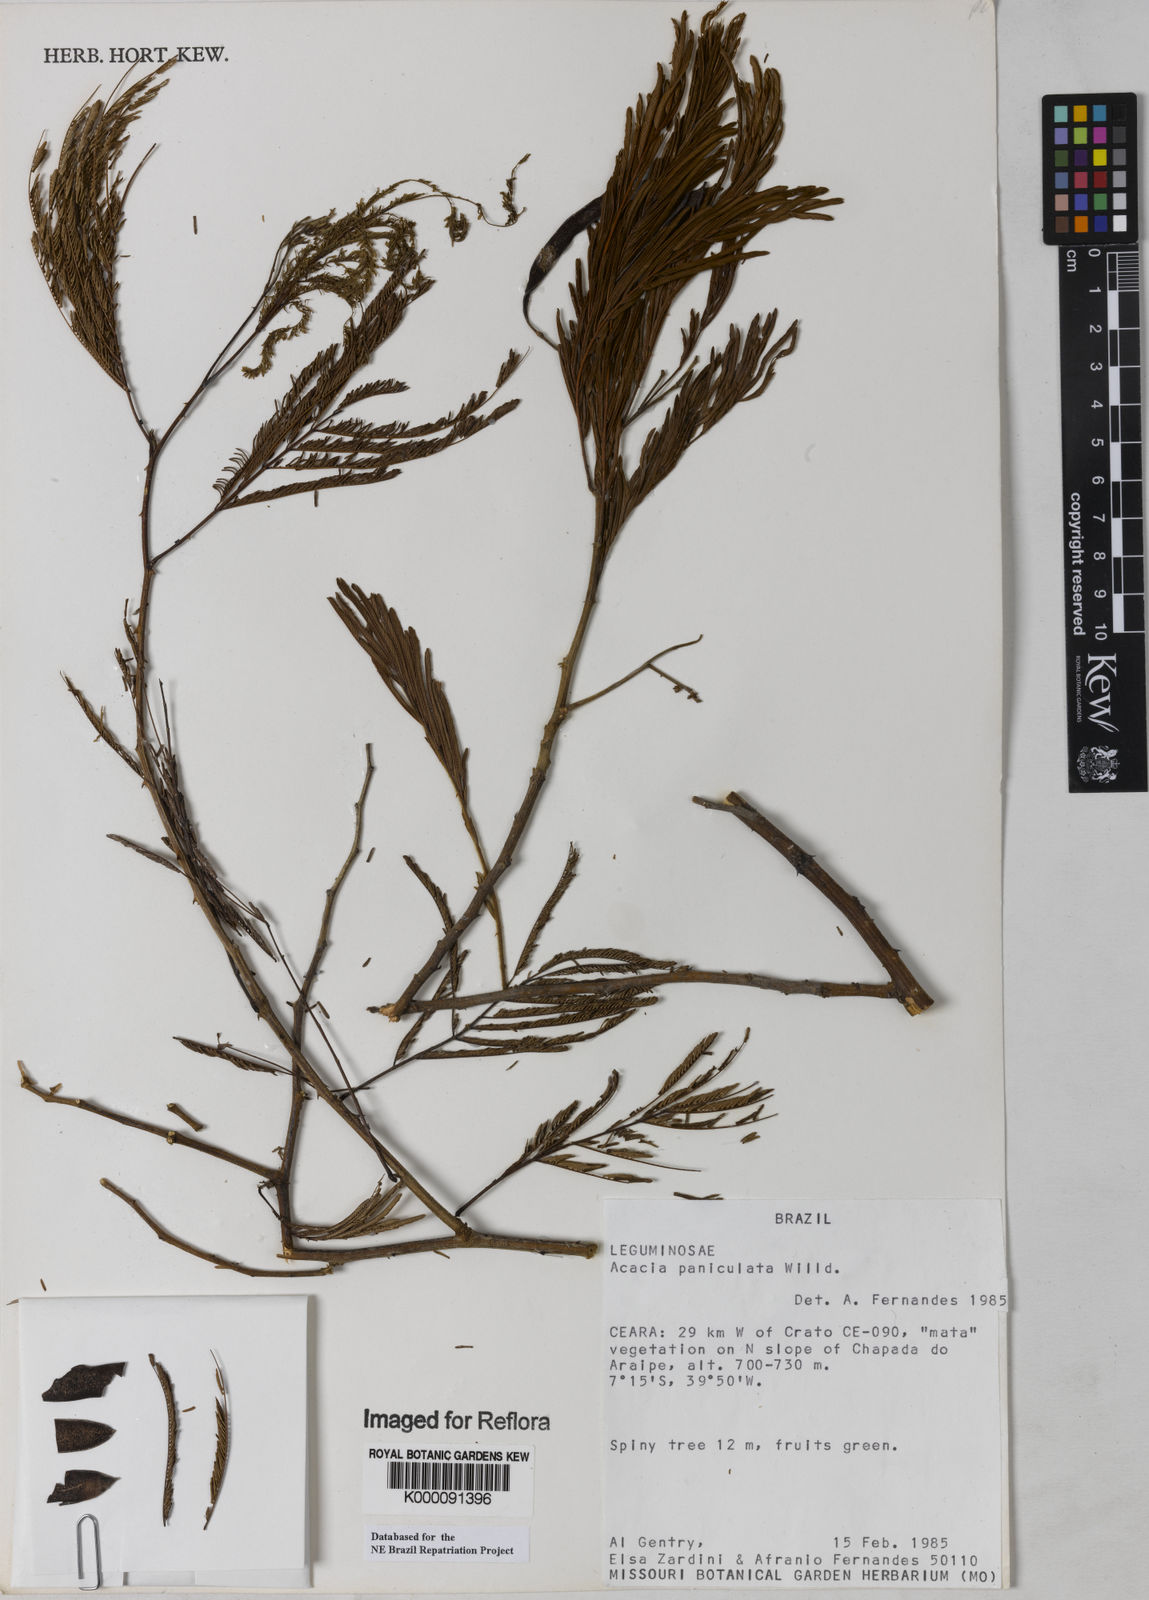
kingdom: Plantae
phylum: Tracheophyta
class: Magnoliopsida
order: Fabales
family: Fabaceae
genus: Senegalia
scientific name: Senegalia tenuifolia
